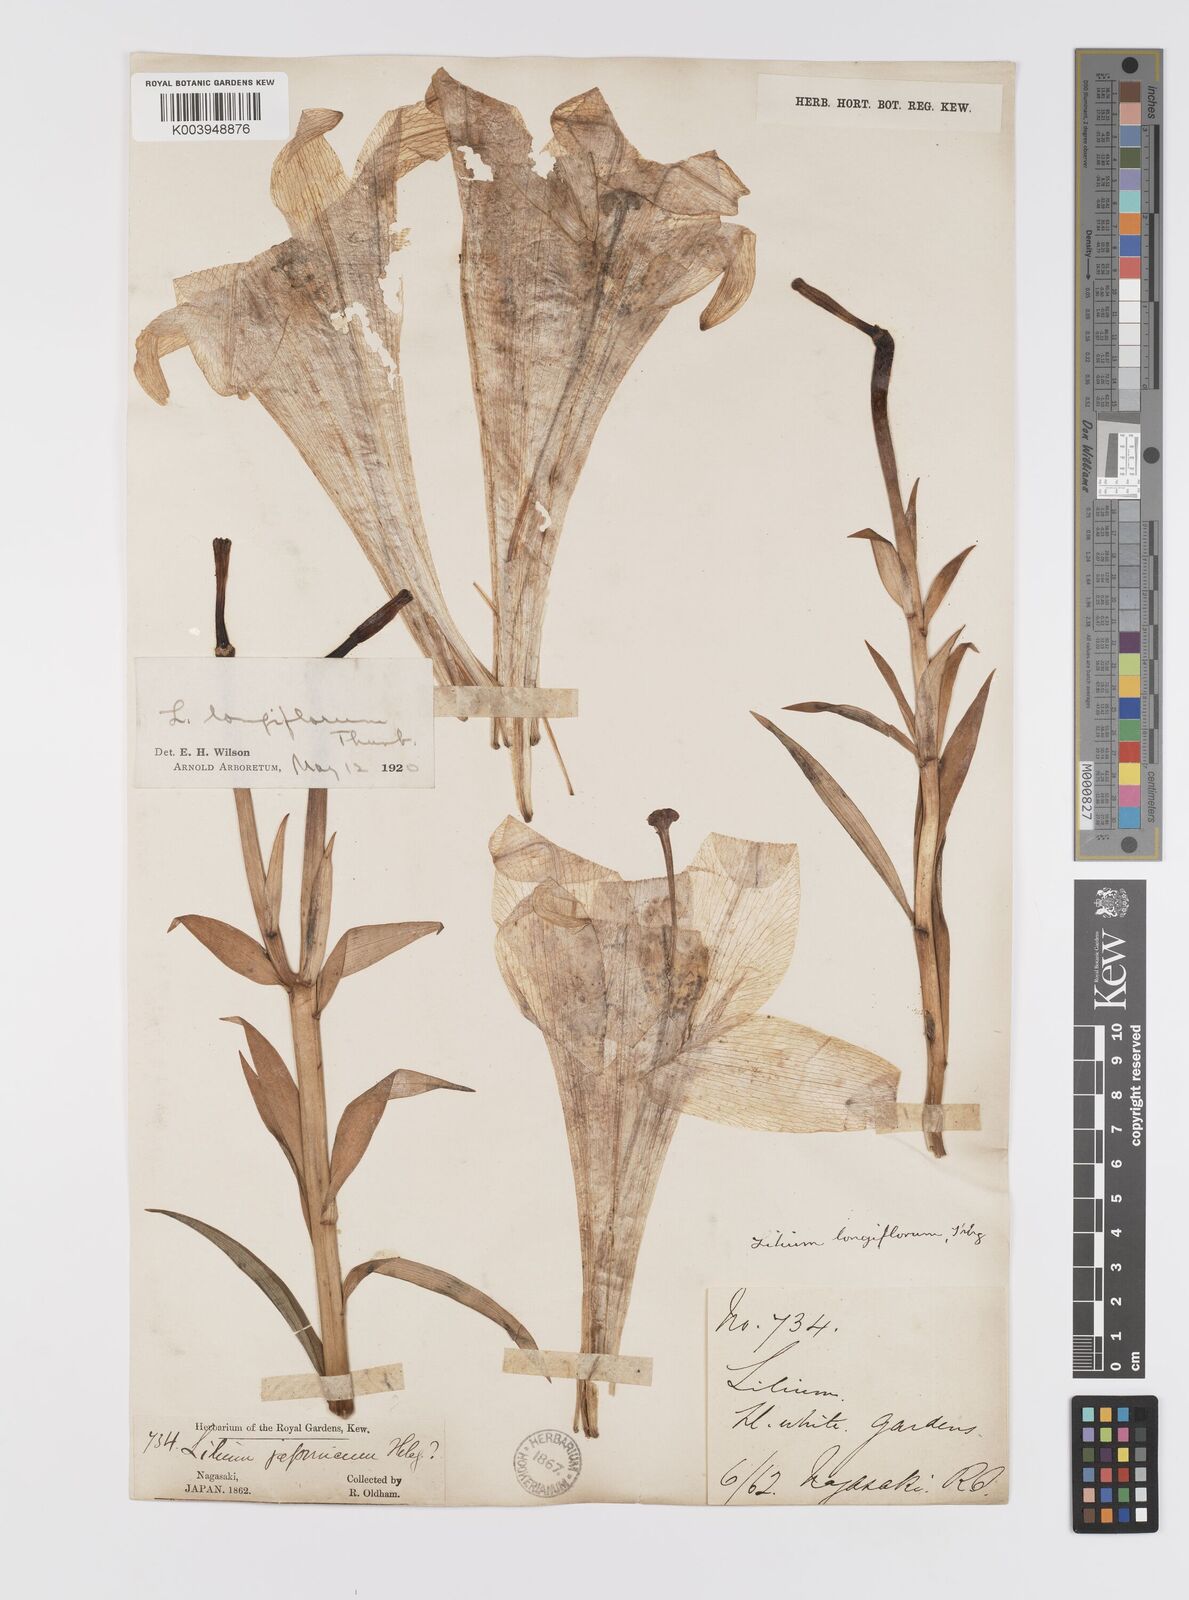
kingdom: Plantae
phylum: Tracheophyta
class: Liliopsida
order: Liliales
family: Liliaceae
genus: Lilium
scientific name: Lilium longiflorum
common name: Easter lily
